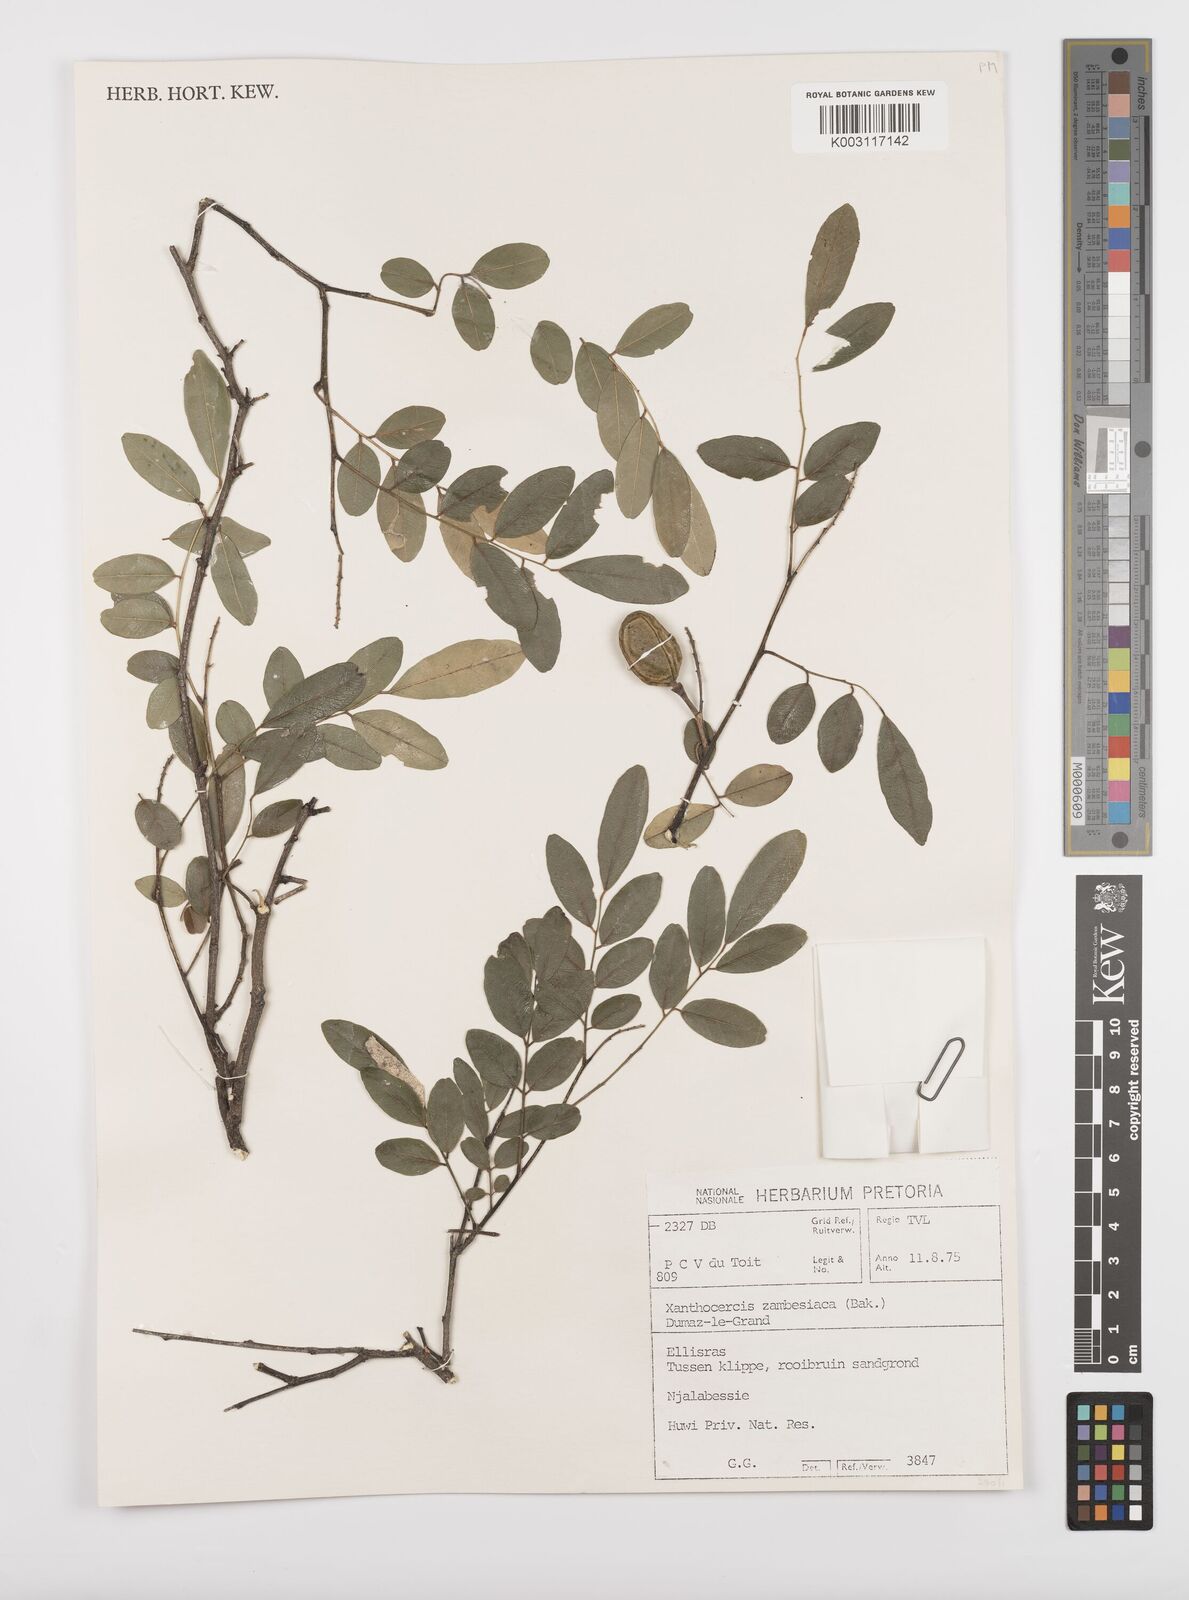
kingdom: Plantae
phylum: Tracheophyta
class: Magnoliopsida
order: Fabales
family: Fabaceae
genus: Xanthocercis
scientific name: Xanthocercis zambesiaca
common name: Nyala-tree
